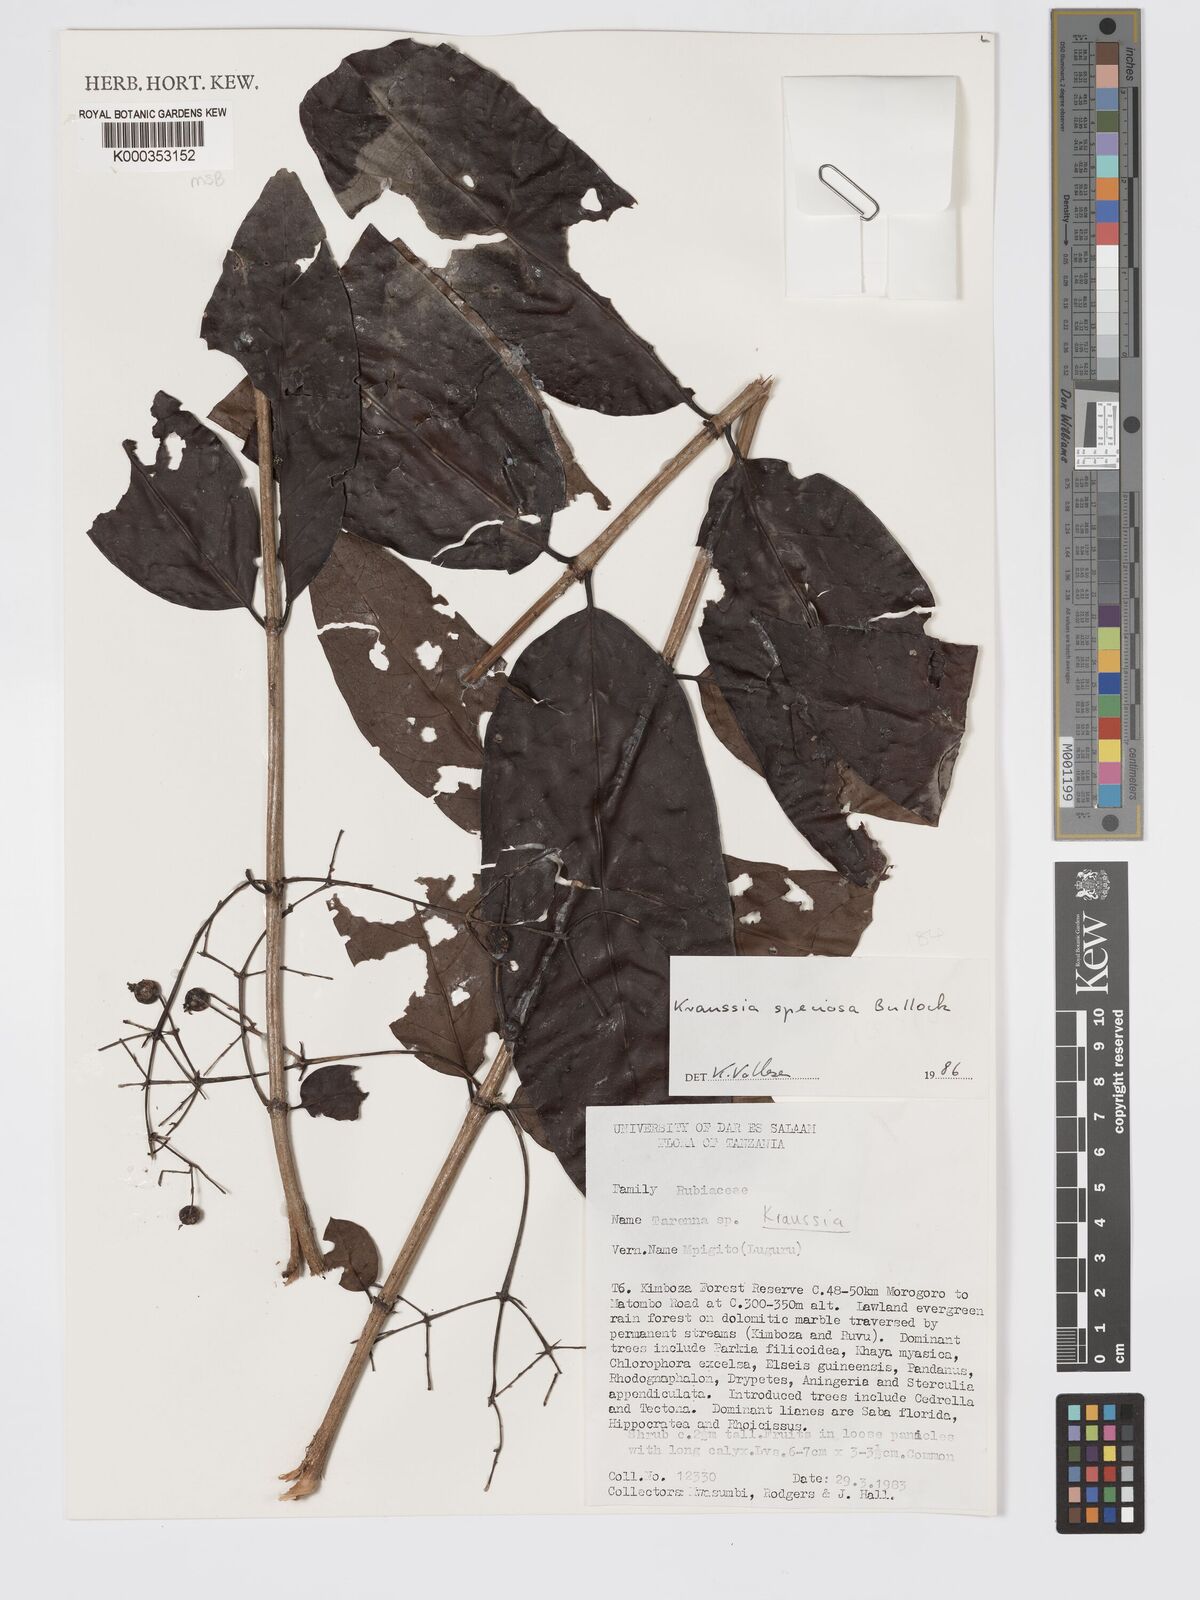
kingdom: Plantae
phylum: Tracheophyta
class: Magnoliopsida
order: Gentianales
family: Rubiaceae
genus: Kraussia
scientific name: Kraussia speciosa
